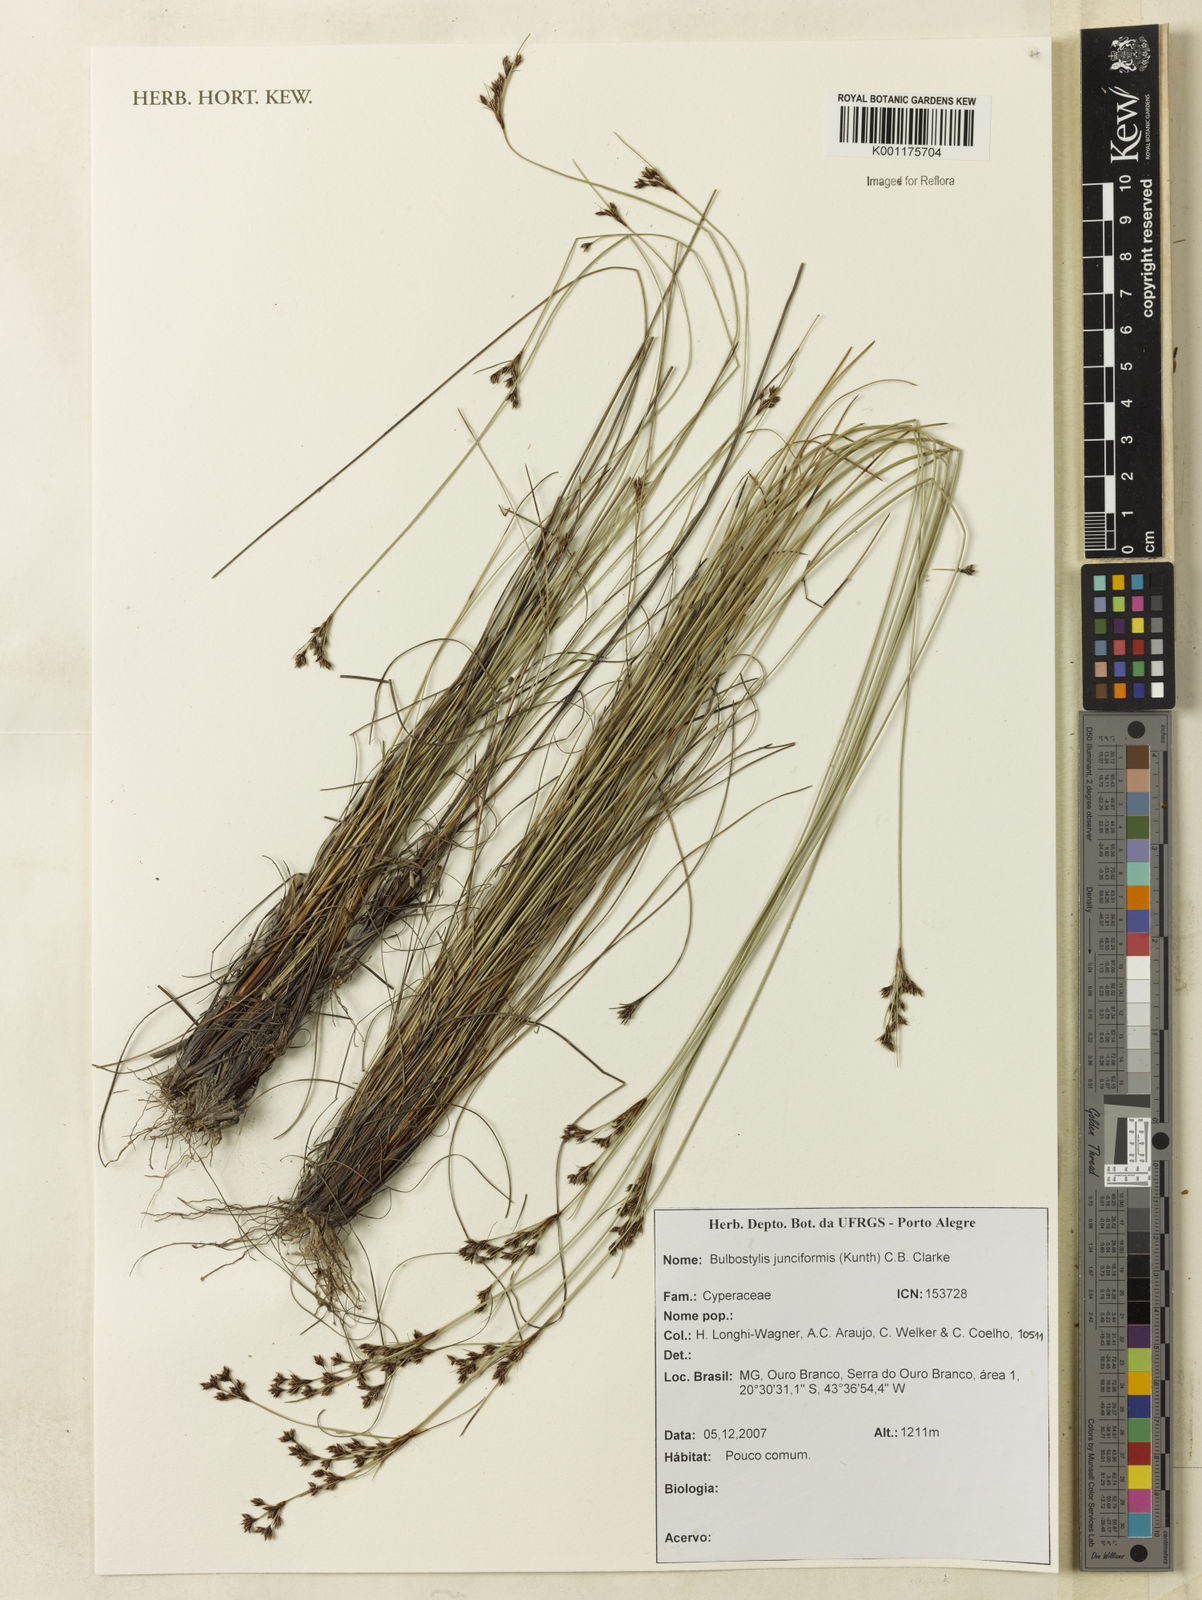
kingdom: Plantae
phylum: Tracheophyta
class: Liliopsida
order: Poales
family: Cyperaceae
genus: Bulbostylis
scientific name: Bulbostylis junciformis
